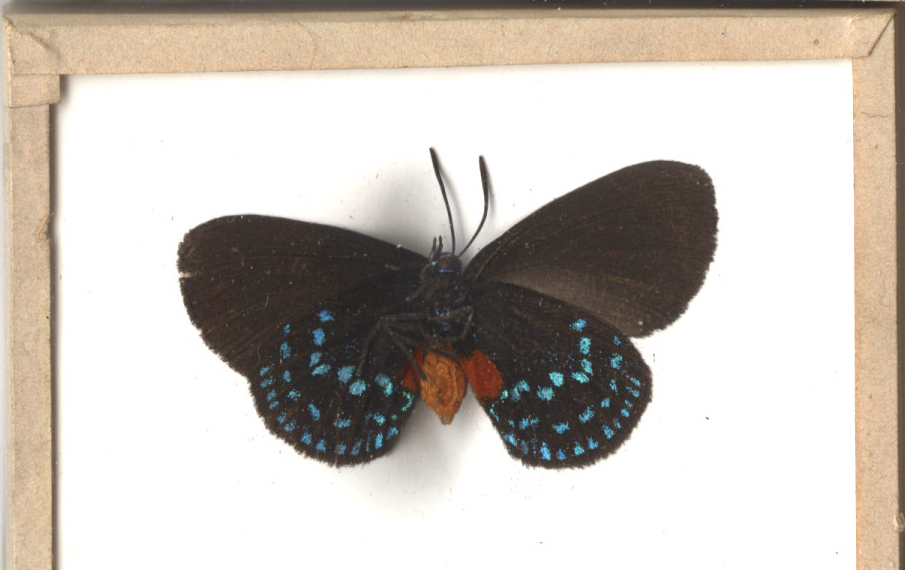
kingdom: Animalia
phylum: Arthropoda
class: Insecta
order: Lepidoptera
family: Lycaenidae
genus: Eumaeus
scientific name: Eumaeus atala
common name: Atala
